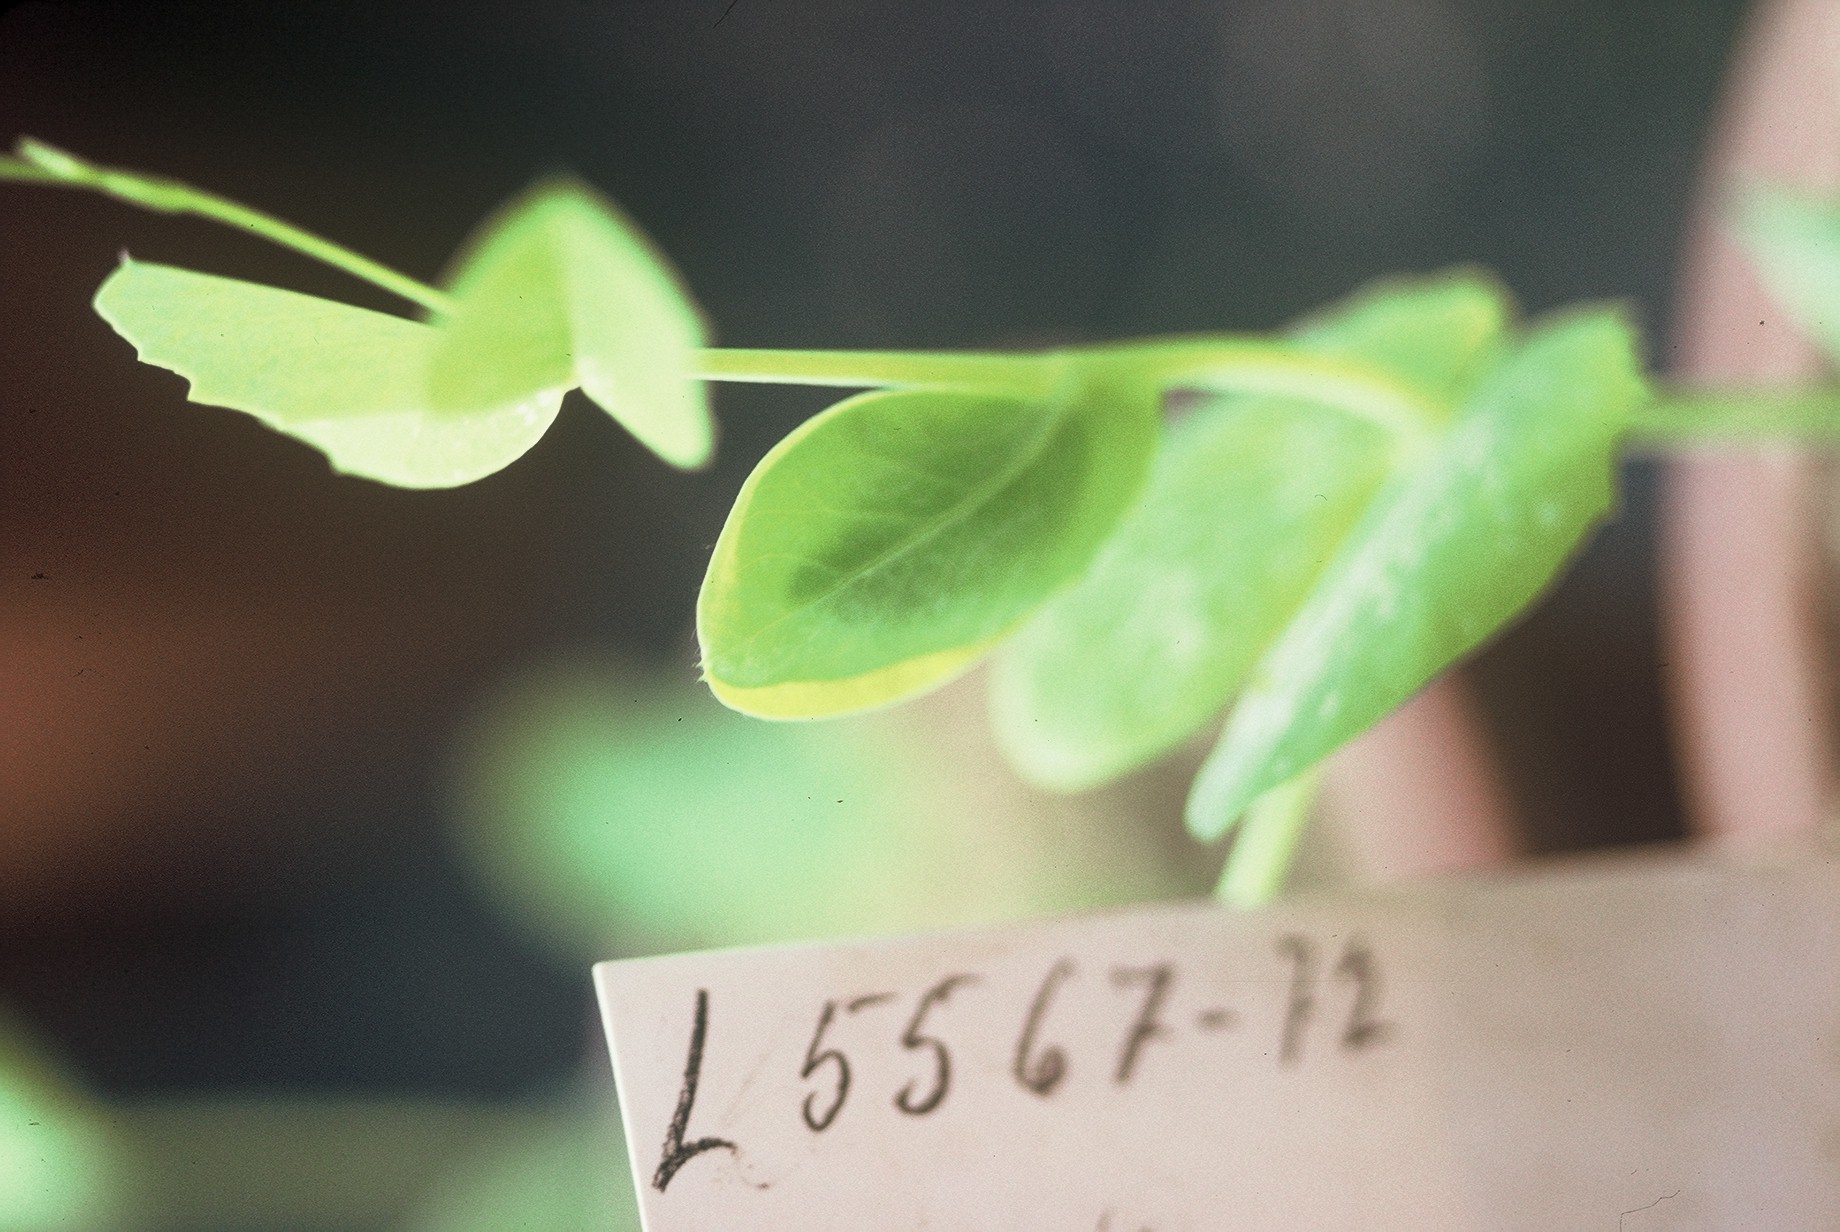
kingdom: Plantae
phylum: Tracheophyta
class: Magnoliopsida
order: Fabales
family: Fabaceae
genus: Lathyrus
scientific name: Lathyrus oleraceus
